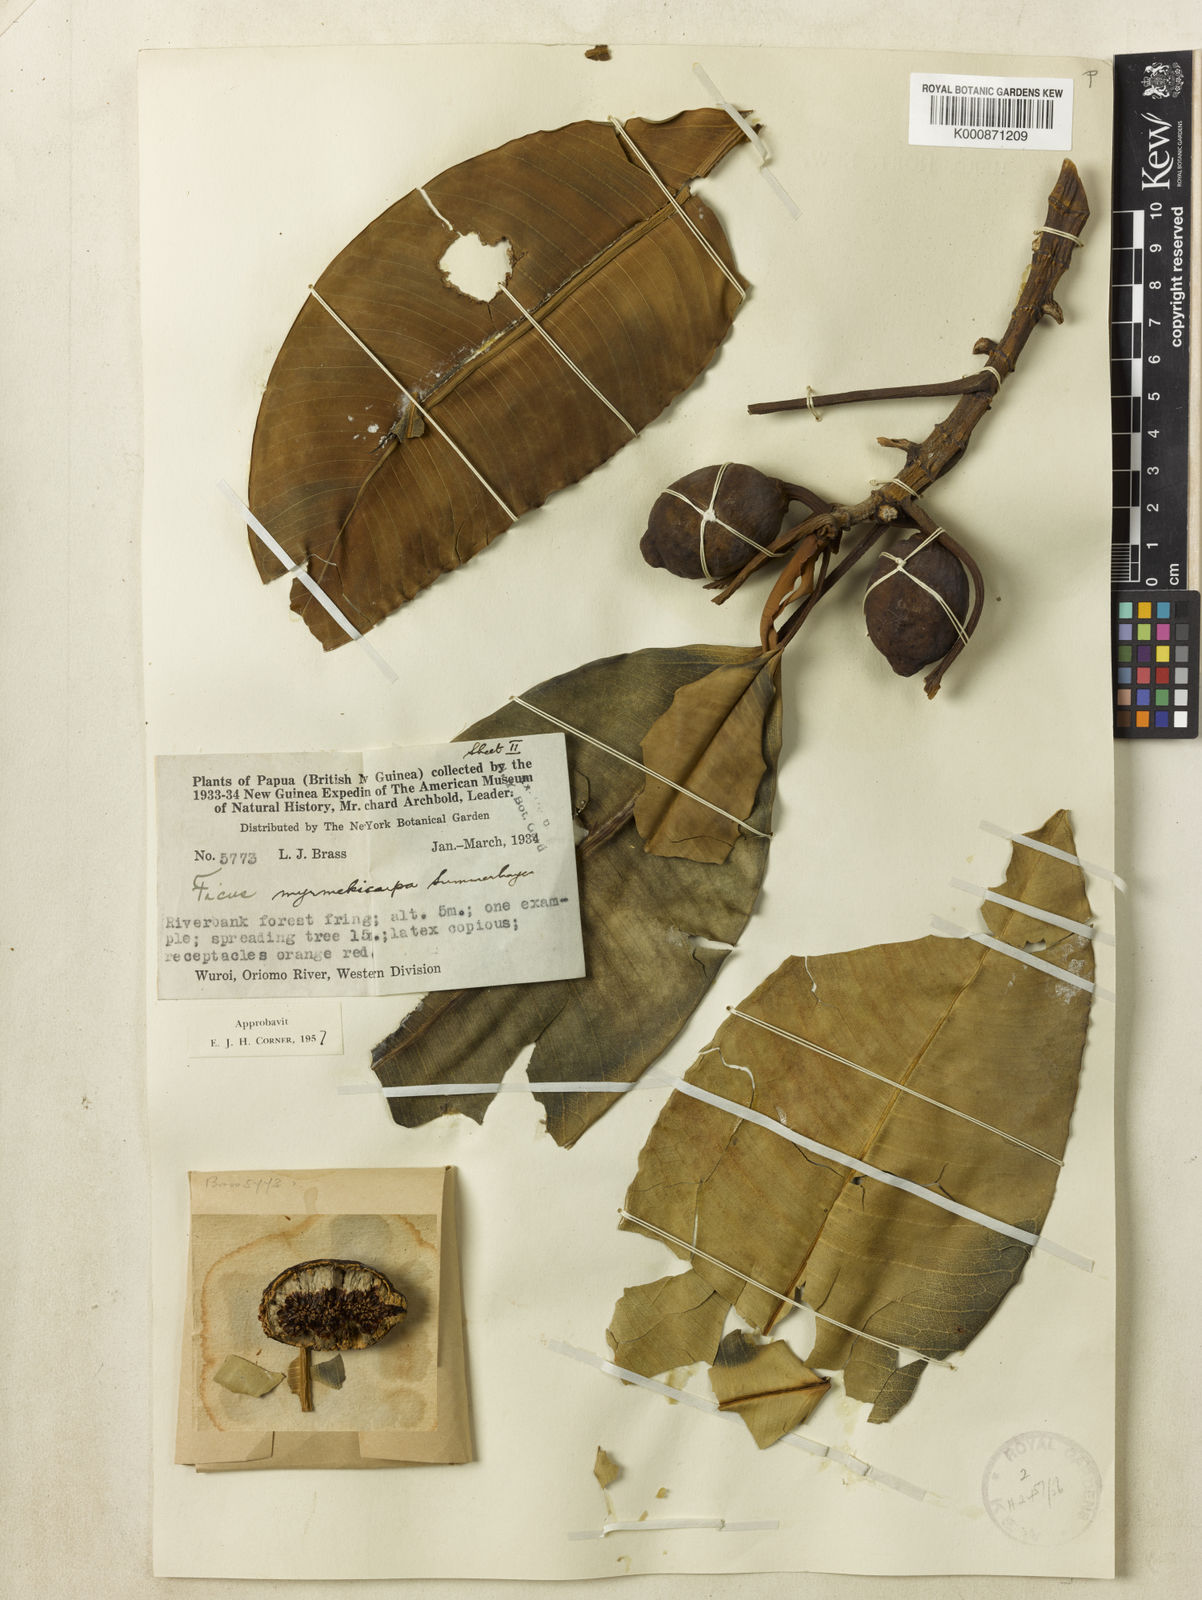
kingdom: Plantae
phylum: Tracheophyta
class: Magnoliopsida
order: Rosales
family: Moraceae
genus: Ficus
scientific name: Ficus hesperidiiformis
